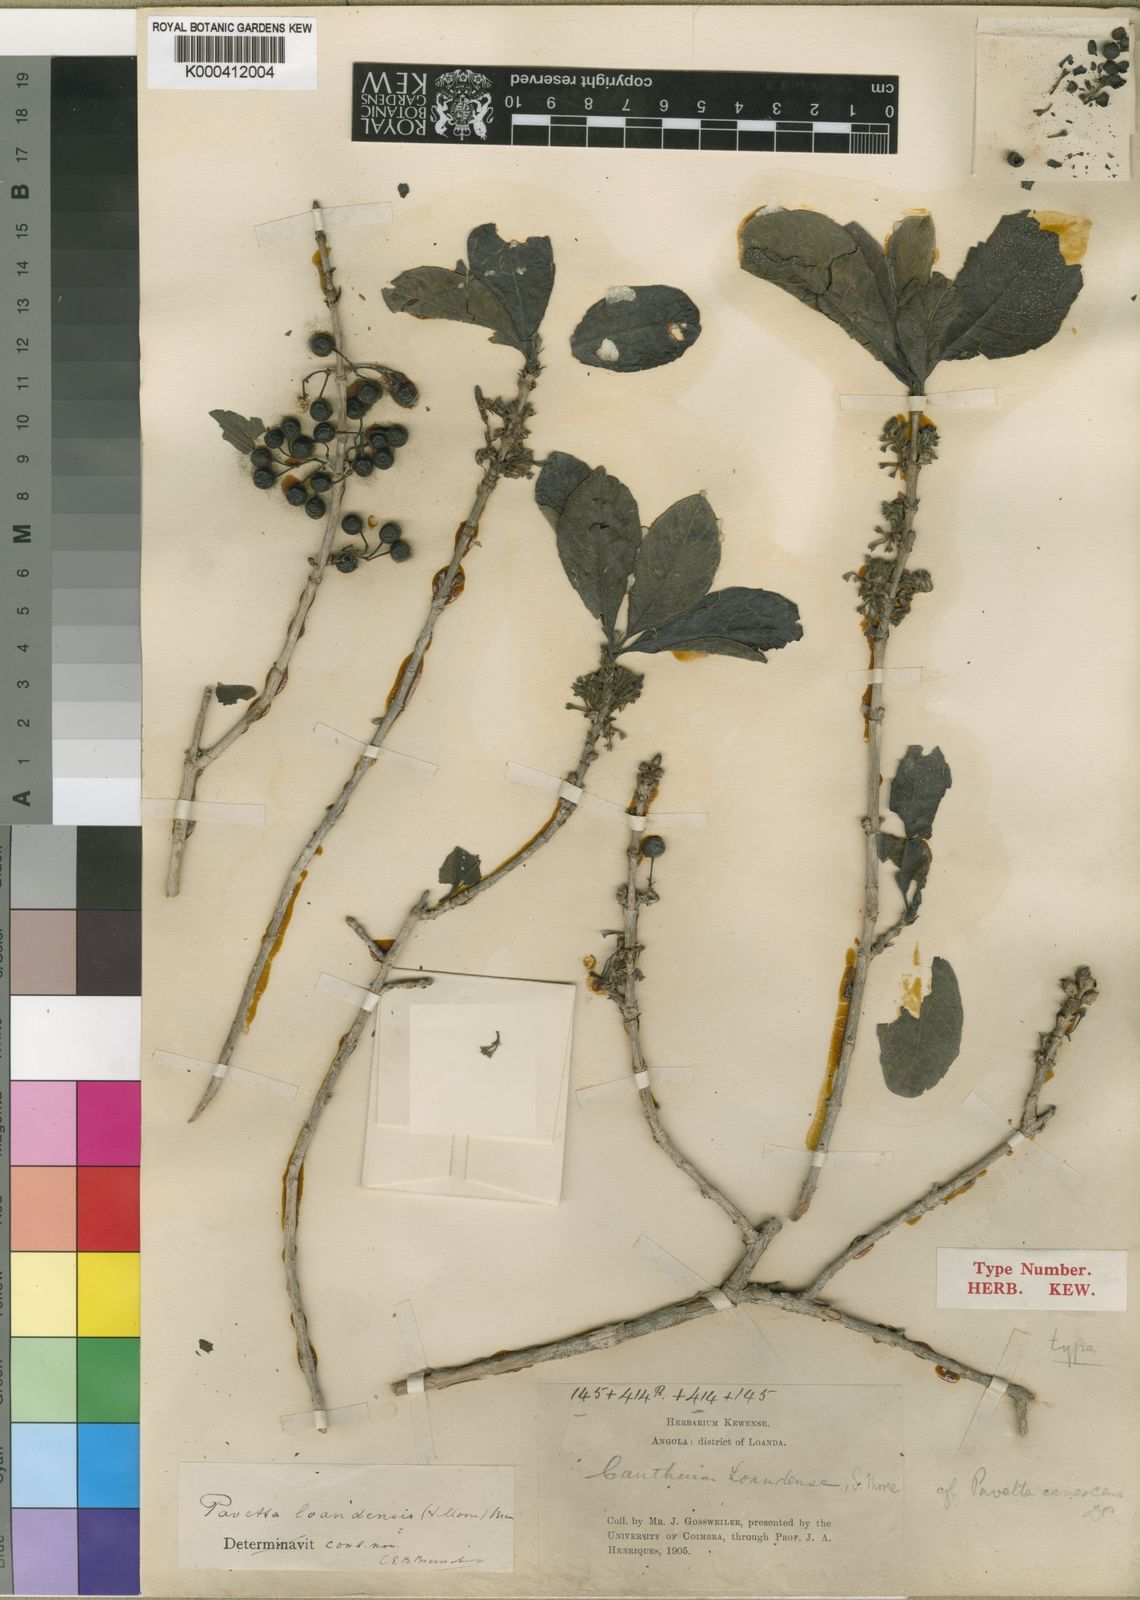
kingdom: Plantae
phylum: Tracheophyta
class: Magnoliopsida
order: Gentianales
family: Rubiaceae
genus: Pavetta
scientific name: Pavetta loandensis
